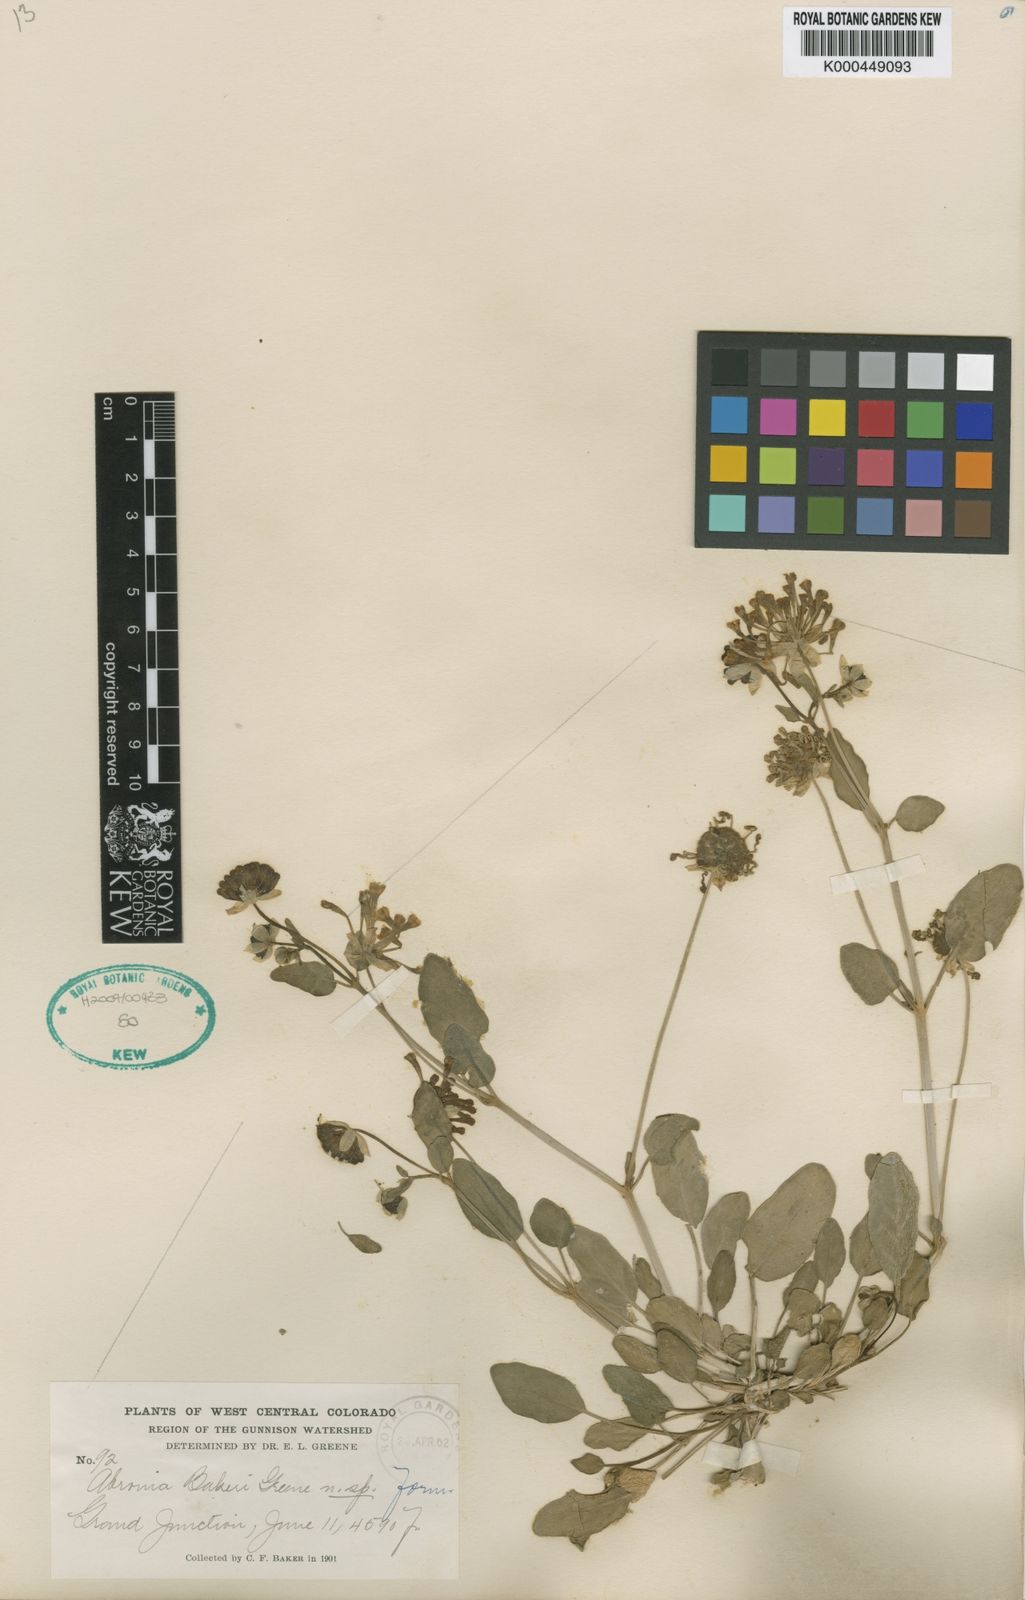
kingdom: Plantae
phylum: Tracheophyta
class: Magnoliopsida
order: Caryophyllales
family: Nyctaginaceae
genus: Abronia
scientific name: Abronia elliptica
